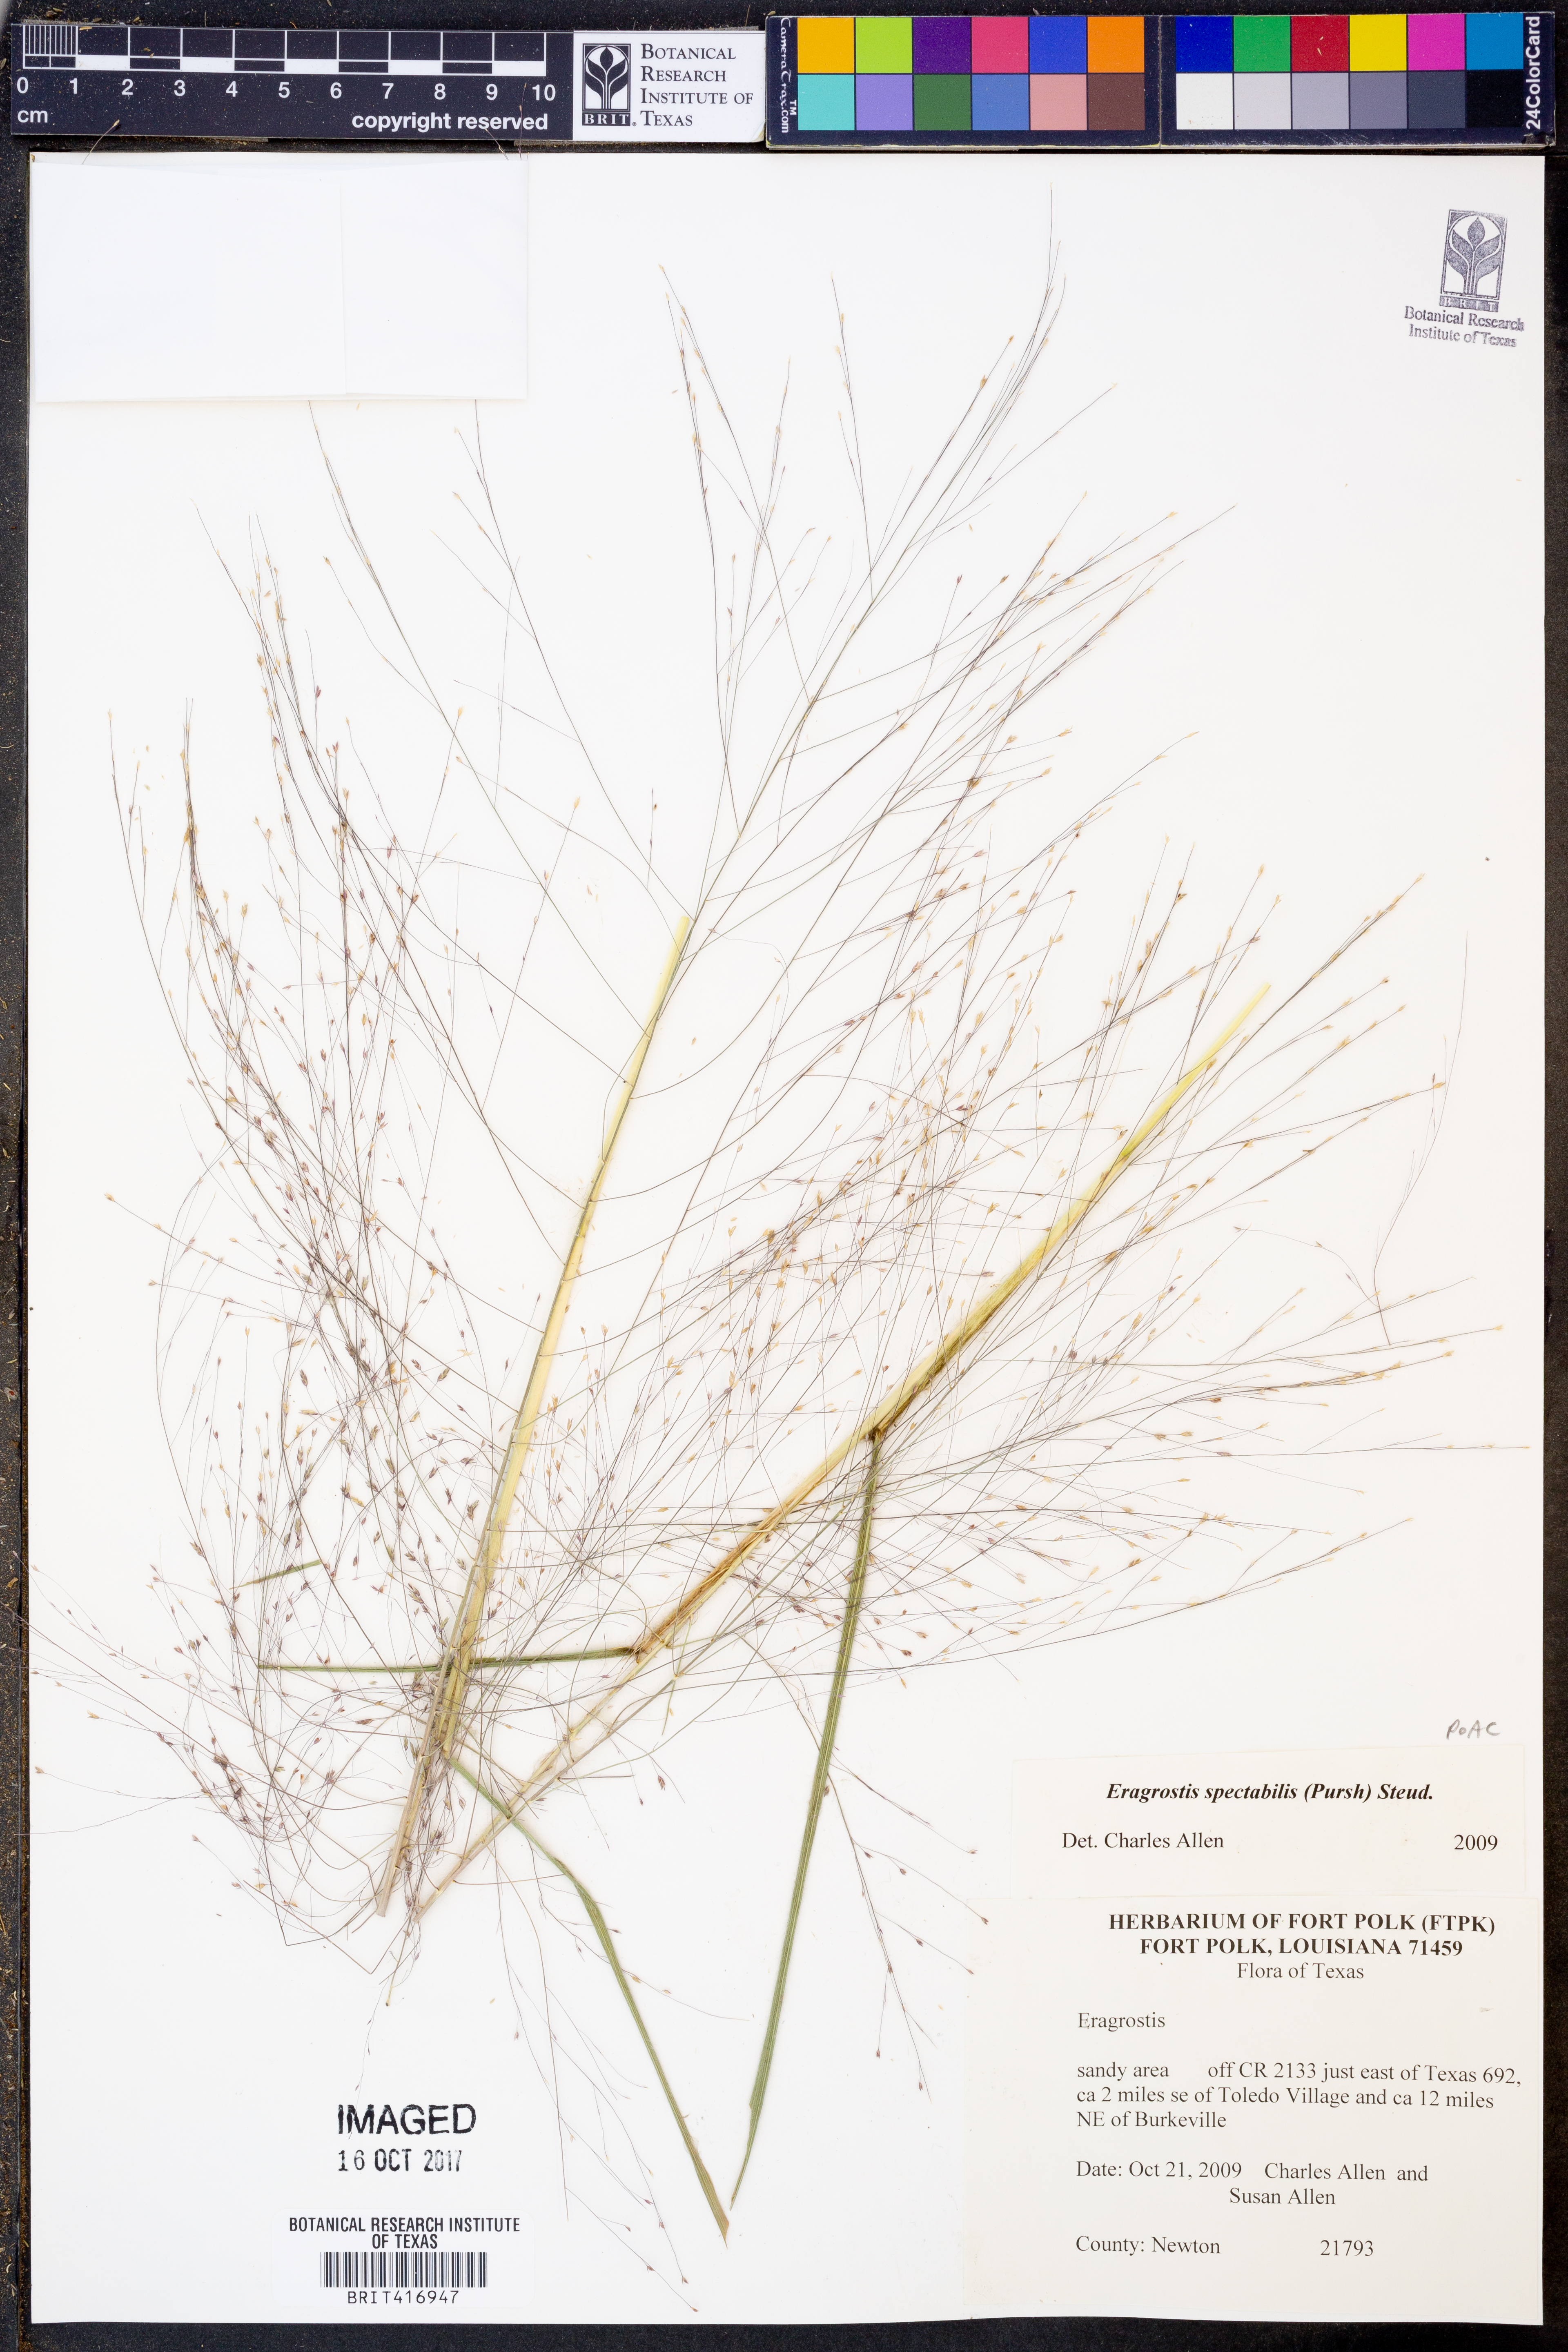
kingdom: Plantae
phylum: Tracheophyta
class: Liliopsida
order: Poales
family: Poaceae
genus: Eragrostis
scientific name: Eragrostis spectabilis
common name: Petticoat-climber
